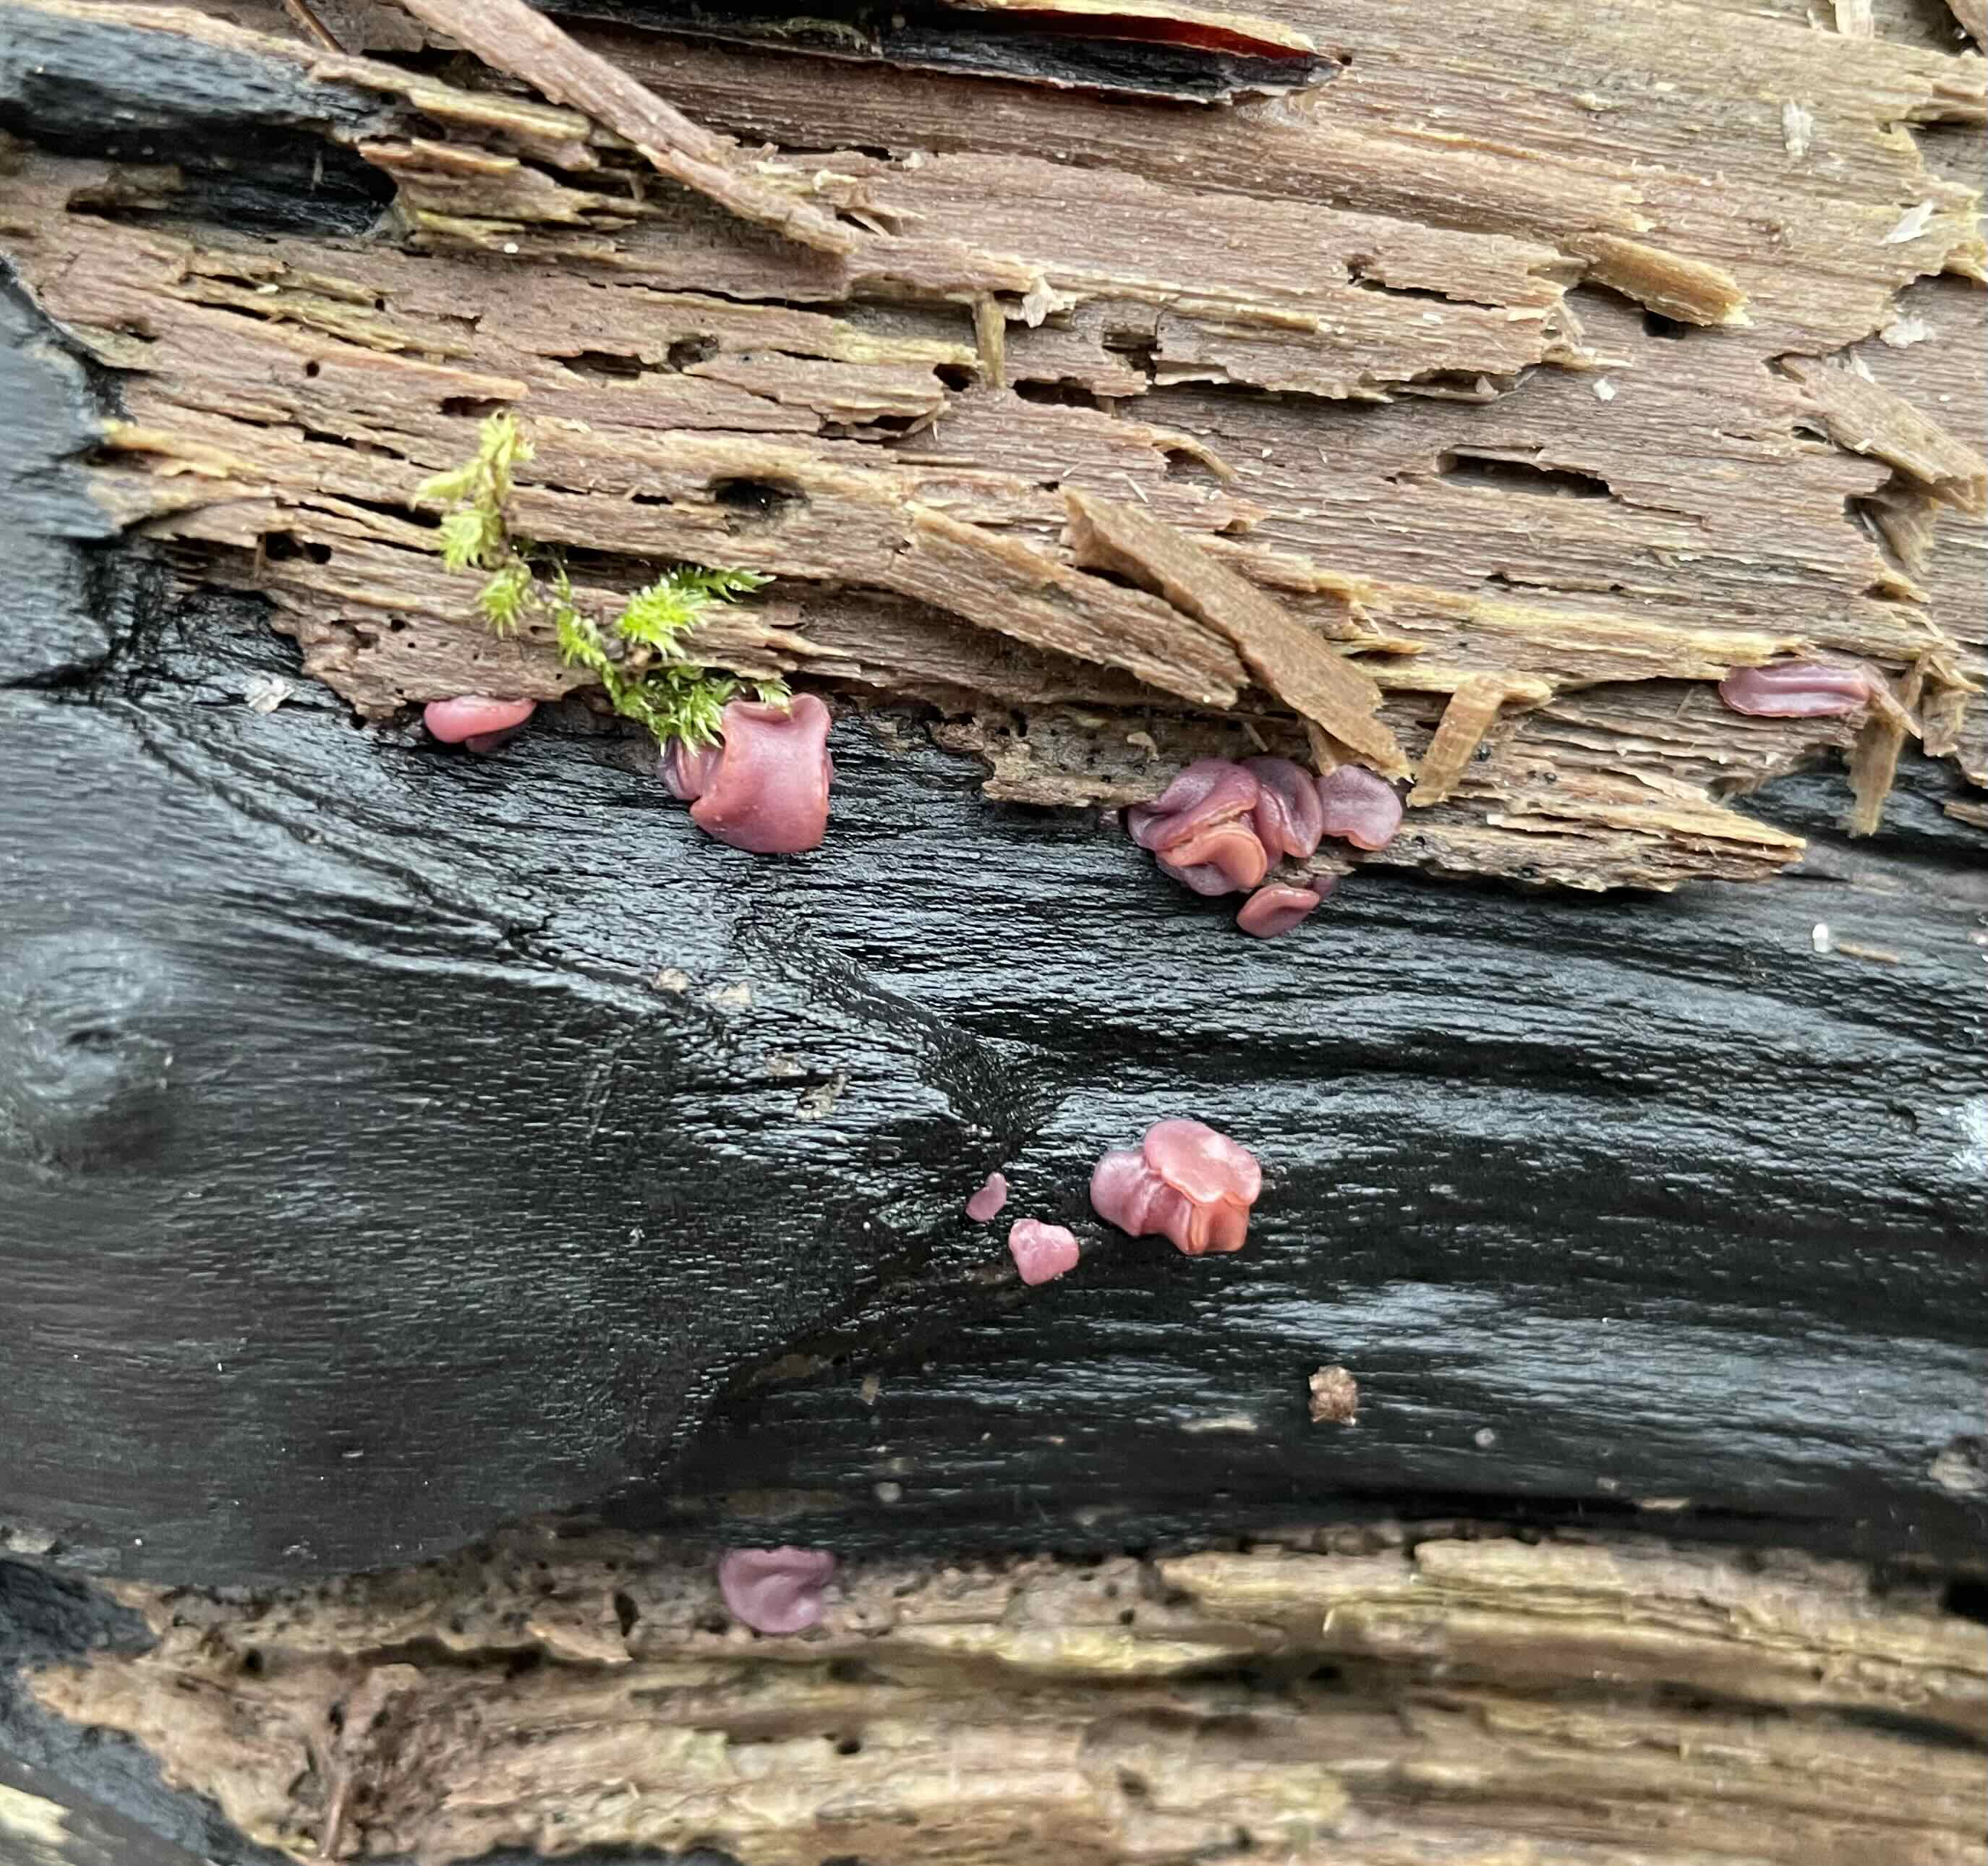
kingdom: Fungi
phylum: Ascomycota
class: Leotiomycetes
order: Helotiales
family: Gelatinodiscaceae
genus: Ascocoryne
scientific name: Ascocoryne sarcoides
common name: rødlilla sejskive
